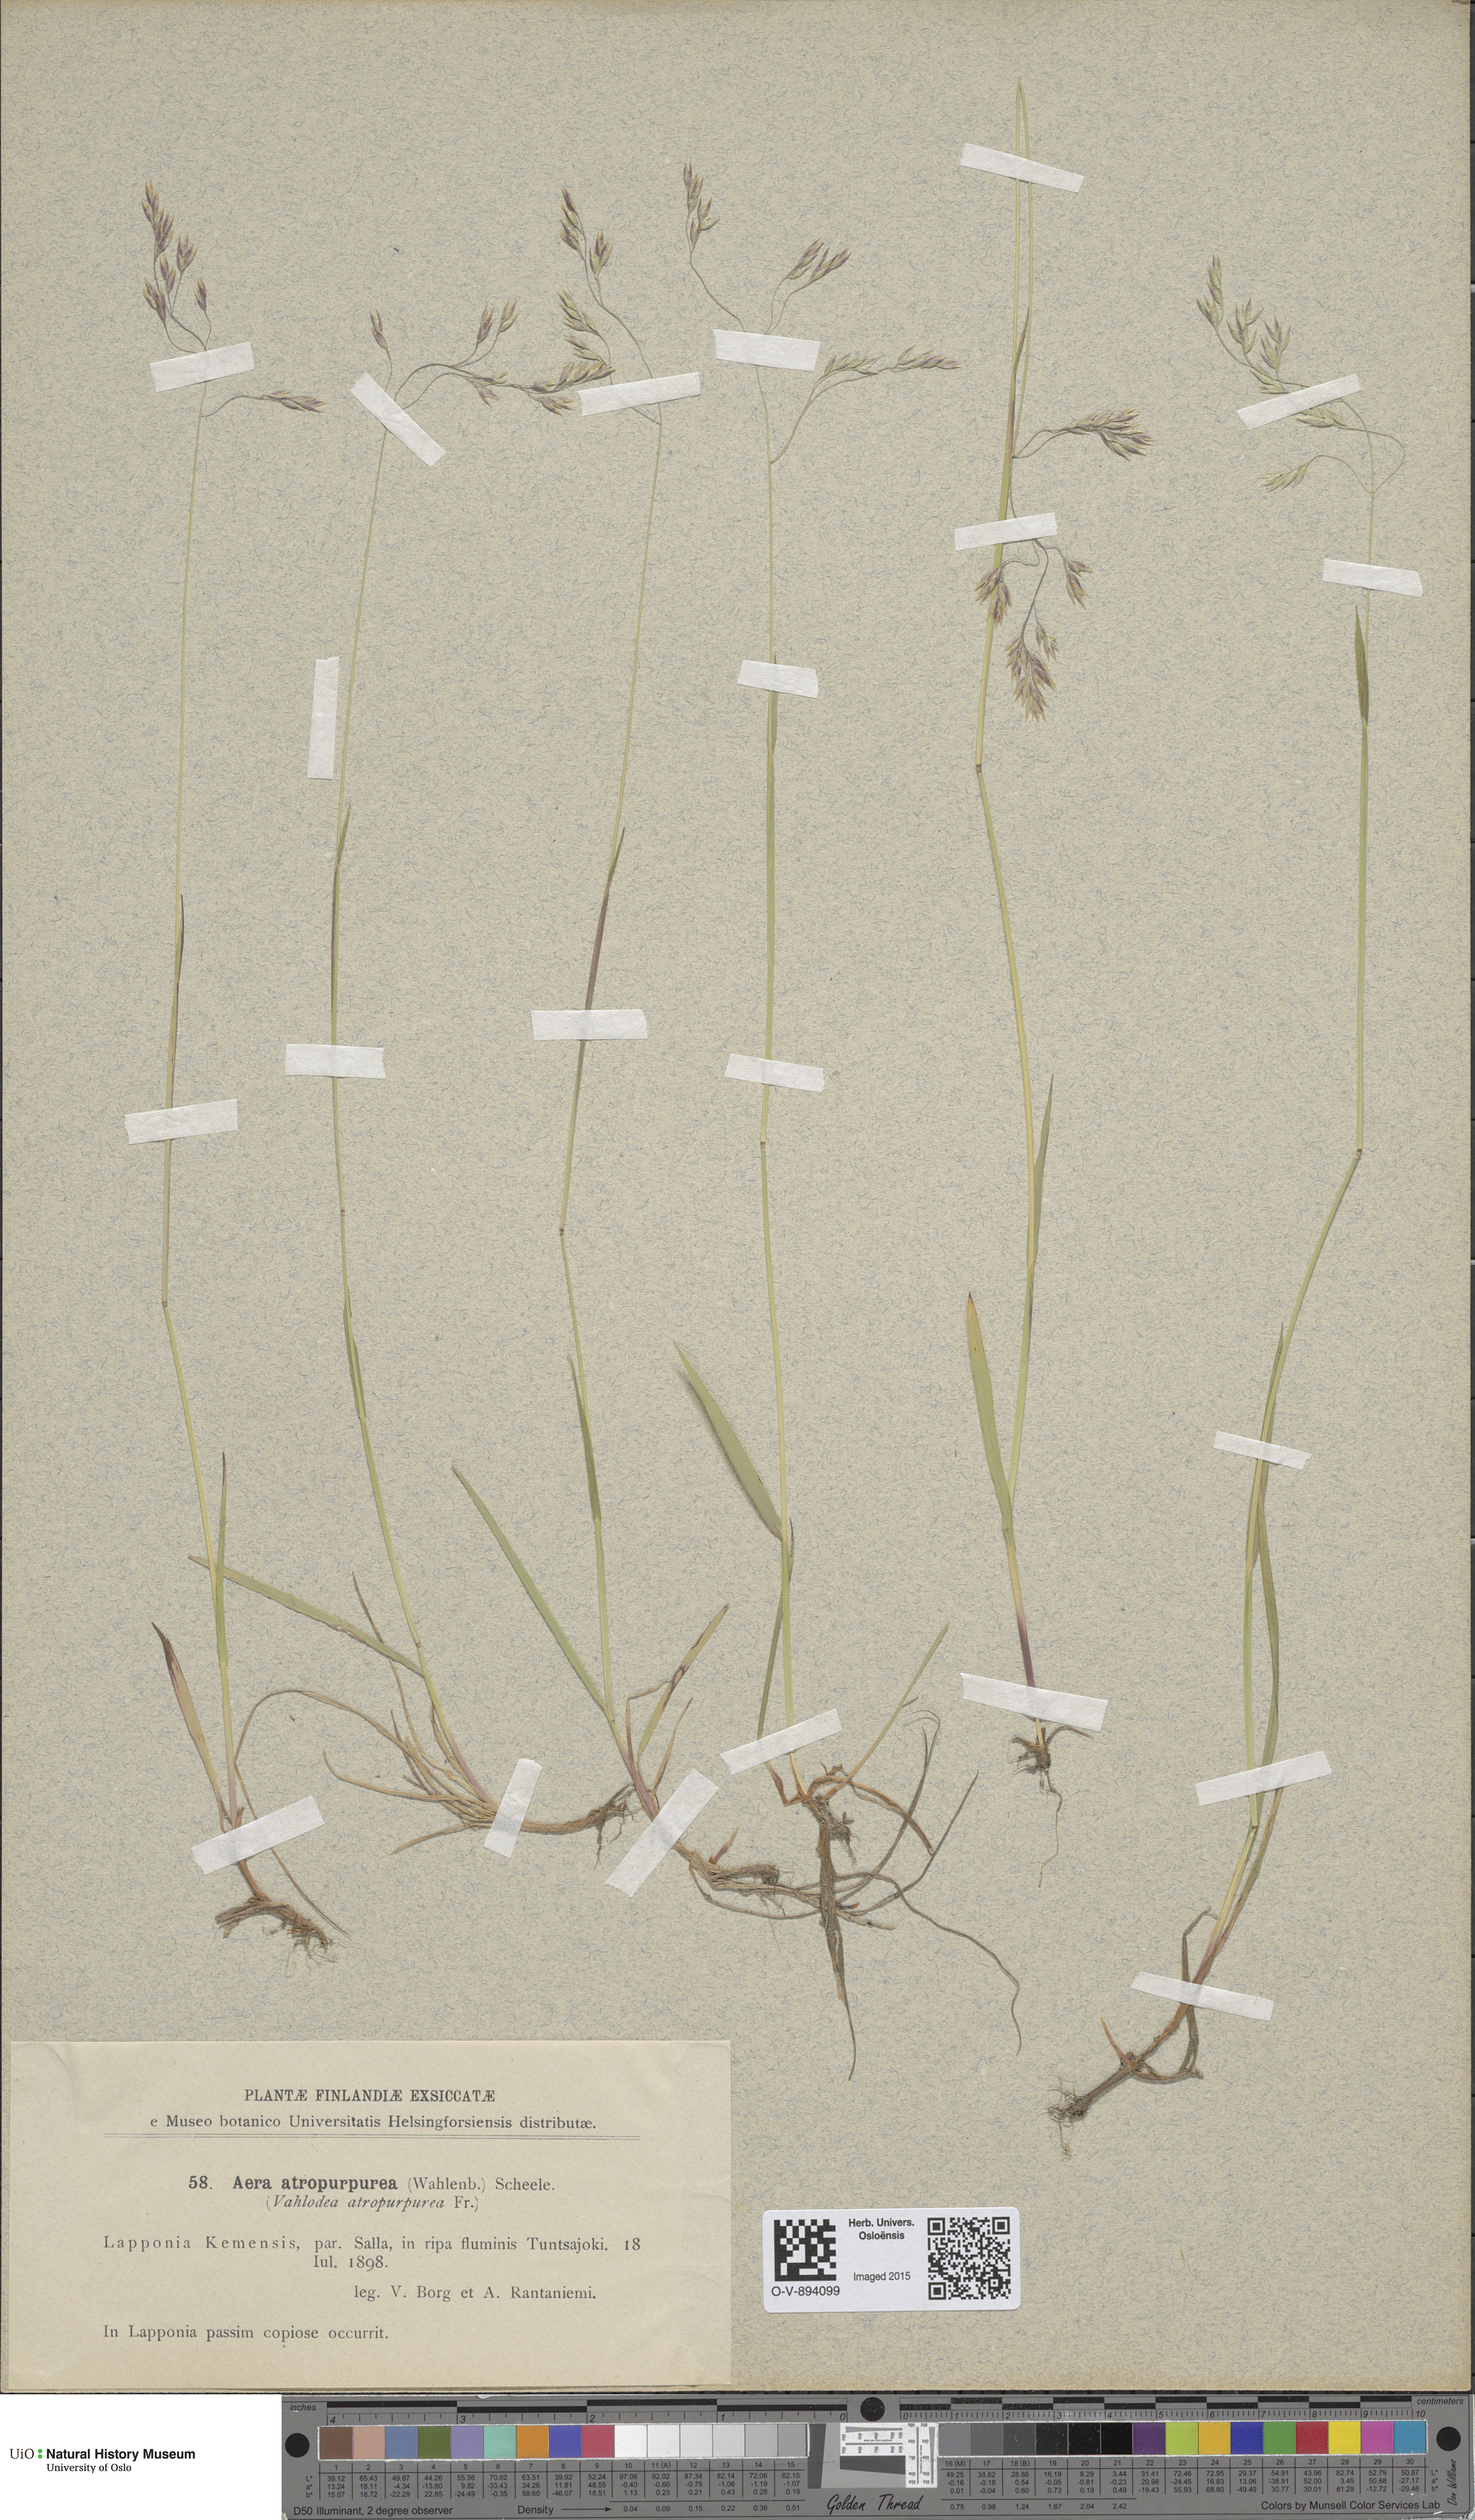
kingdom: Plantae
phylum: Tracheophyta
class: Liliopsida
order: Poales
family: Poaceae
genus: Vahlodea
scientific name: Vahlodea atropurpurea
